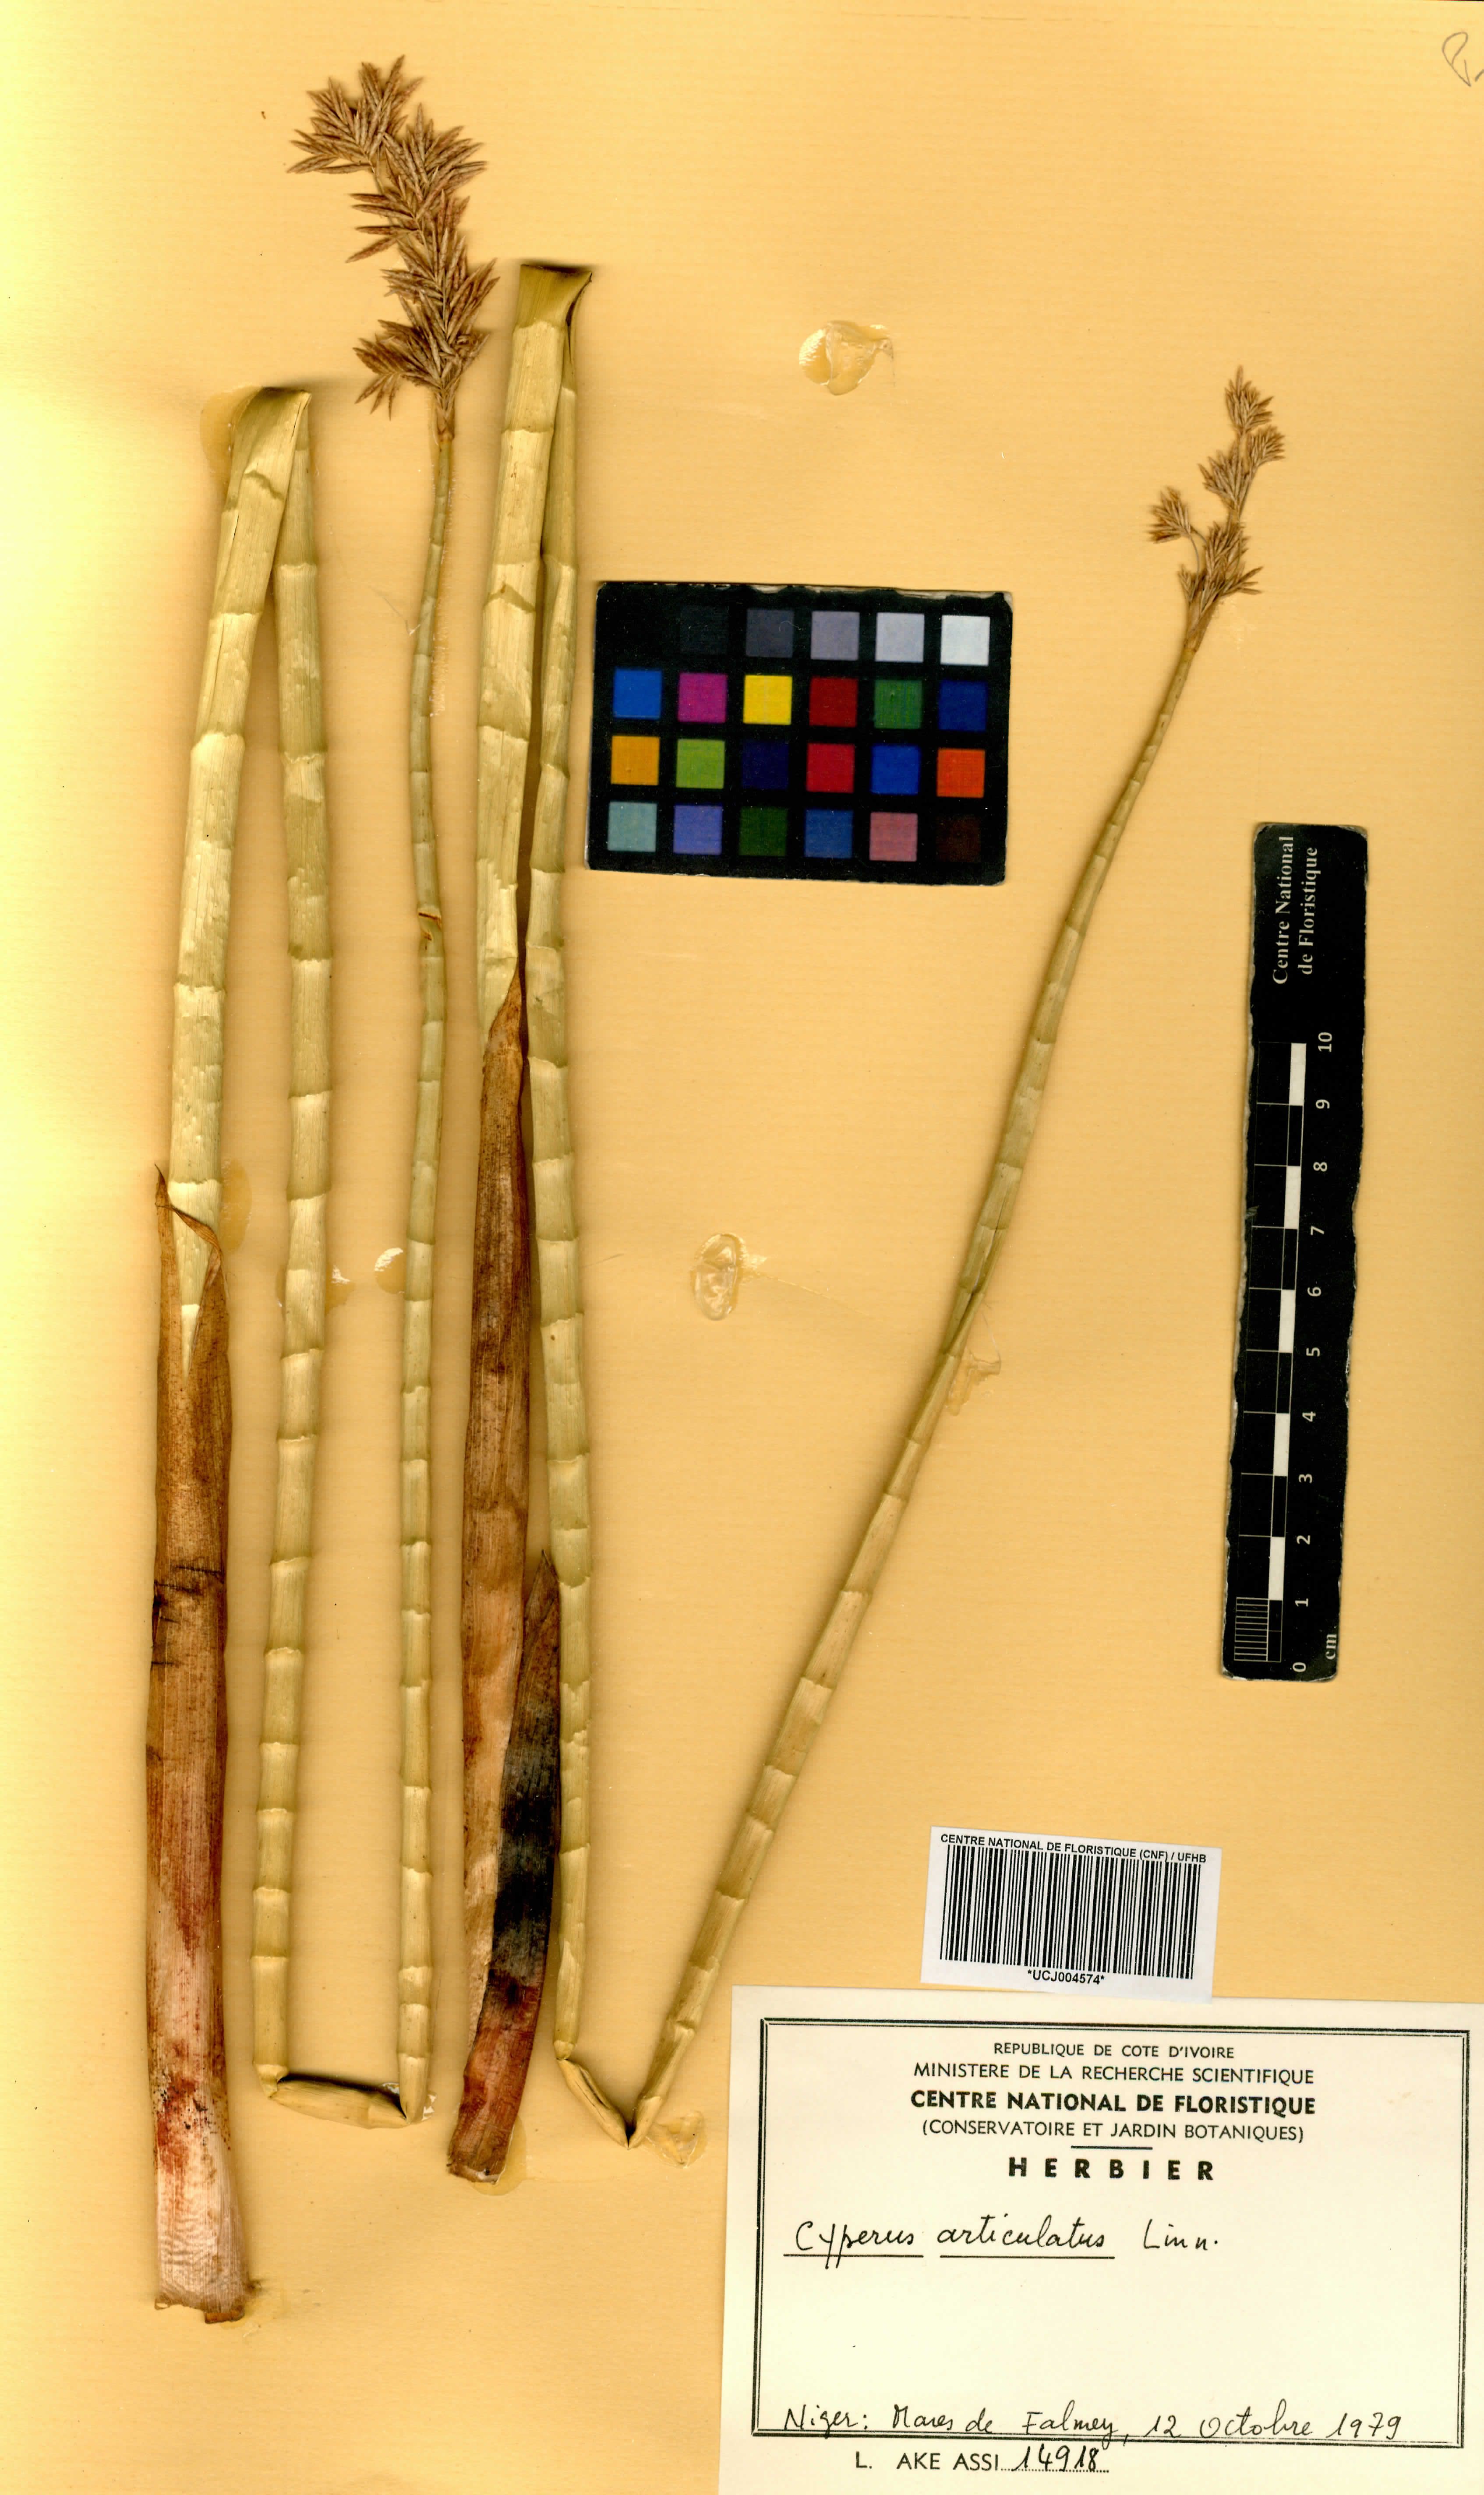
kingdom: Plantae
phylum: Tracheophyta
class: Liliopsida
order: Poales
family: Cyperaceae
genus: Cyperus
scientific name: Cyperus articulatus
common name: Jointed flatsedge
